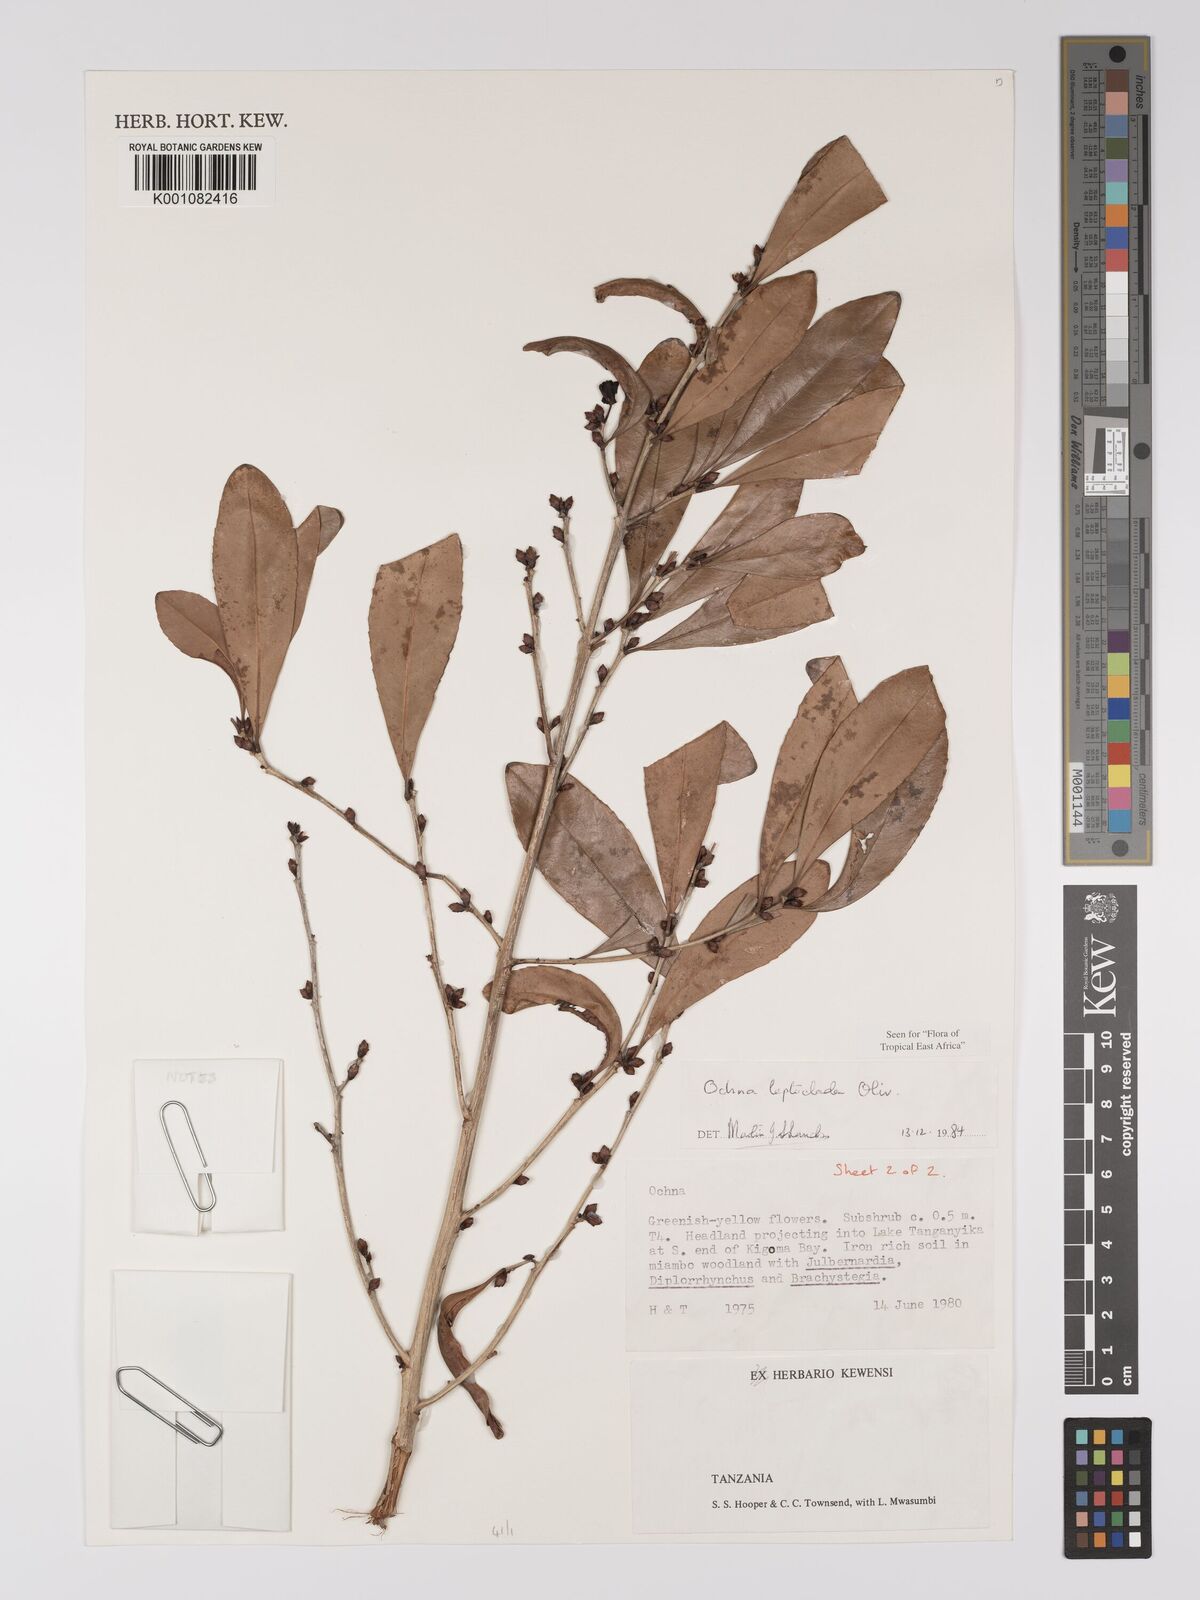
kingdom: Plantae
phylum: Tracheophyta
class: Magnoliopsida
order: Malpighiales
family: Ochnaceae
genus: Ochna
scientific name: Ochna leptoclada
